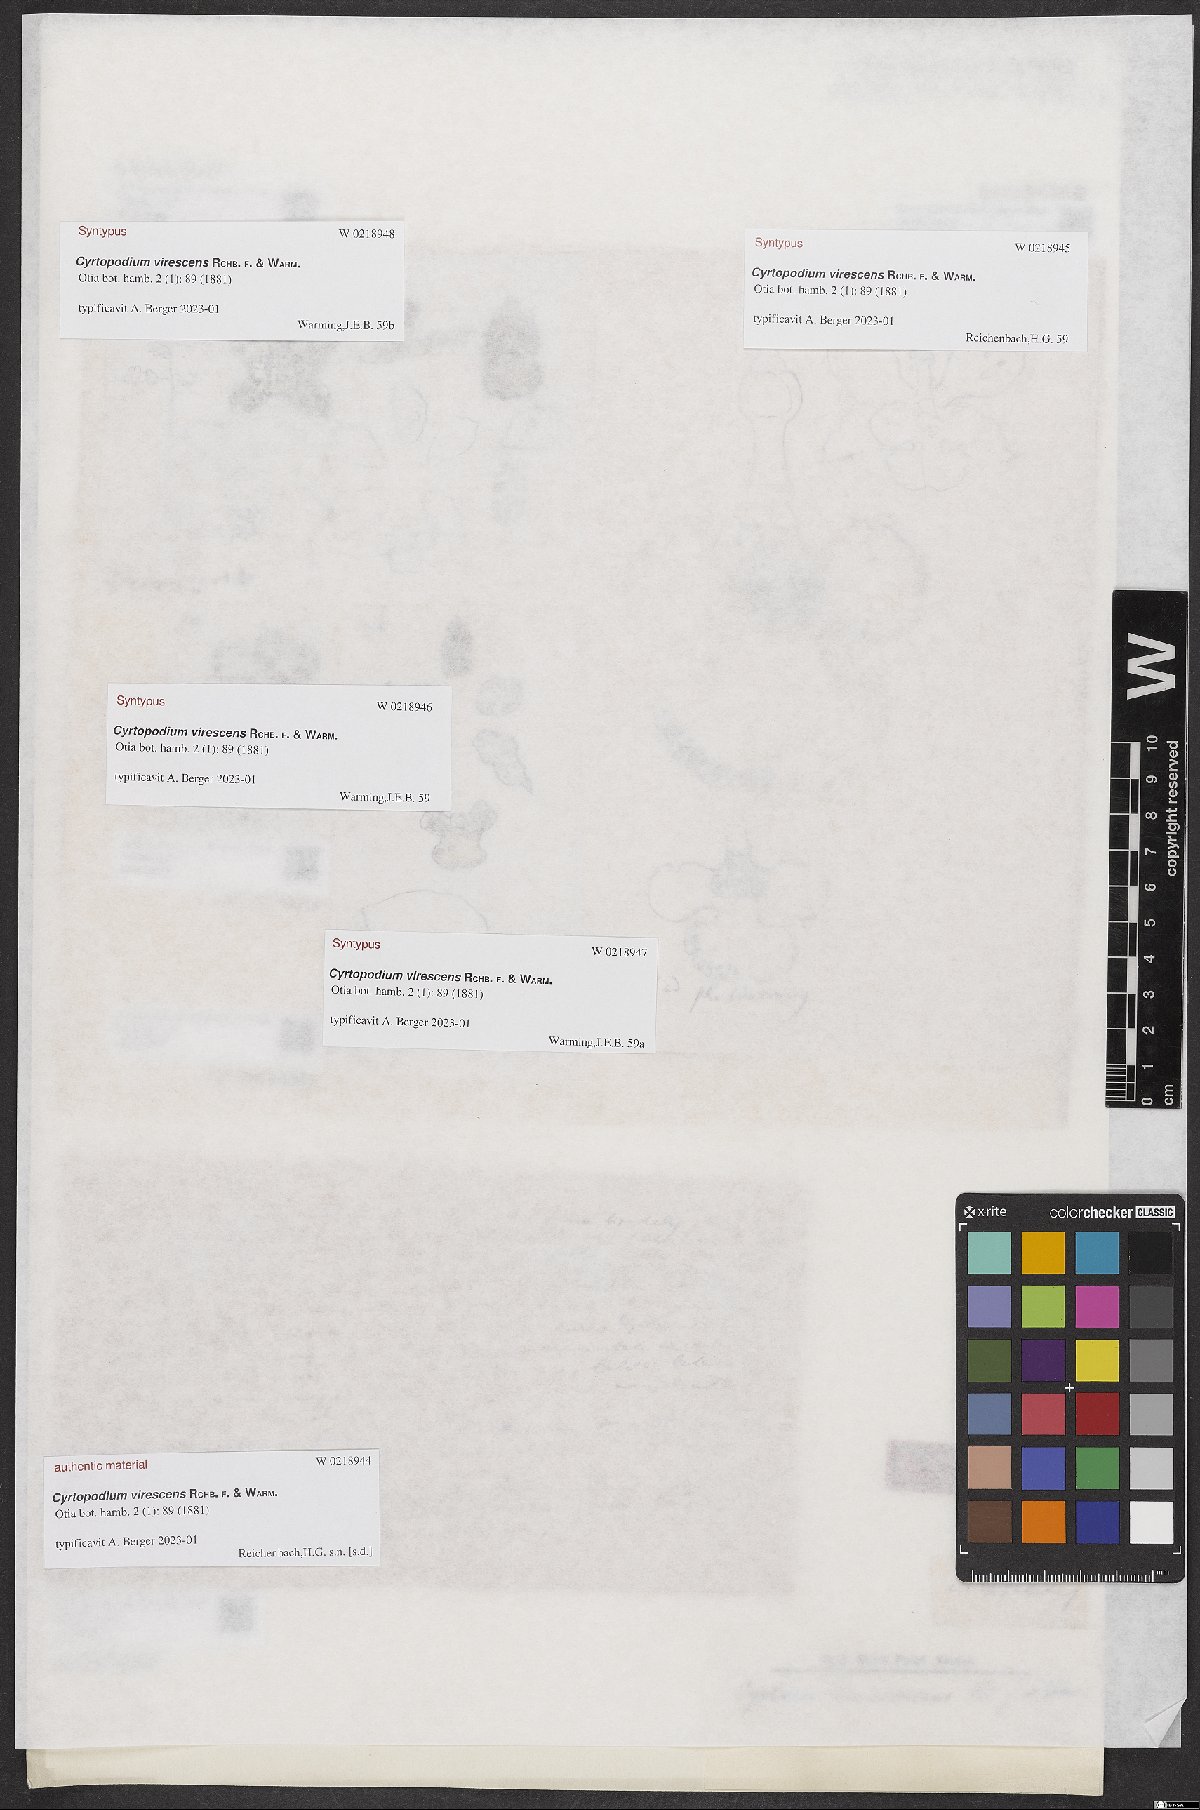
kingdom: Plantae
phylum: Tracheophyta
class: Liliopsida
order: Asparagales
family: Orchidaceae
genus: Cyrtopodium
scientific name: Cyrtopodium virescens
